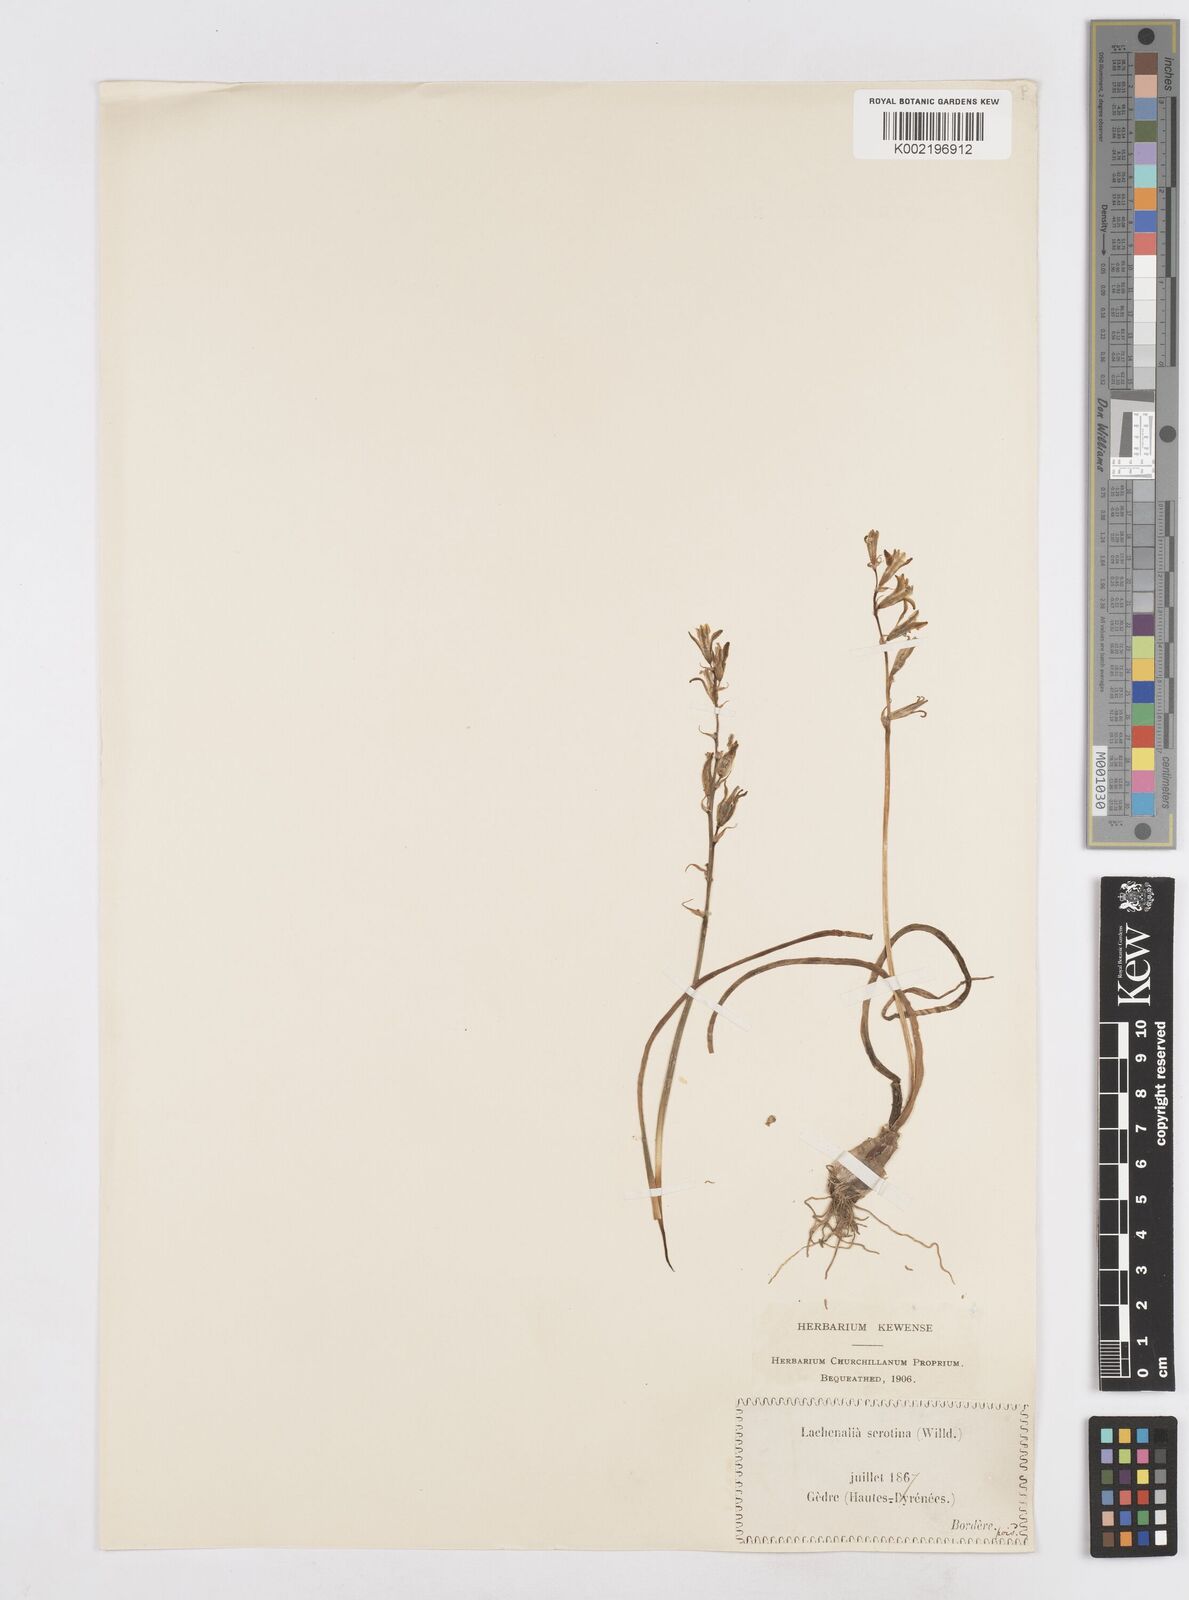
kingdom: Plantae
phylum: Tracheophyta
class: Liliopsida
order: Asparagales
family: Asparagaceae
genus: Dipcadi
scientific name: Dipcadi serotinum
